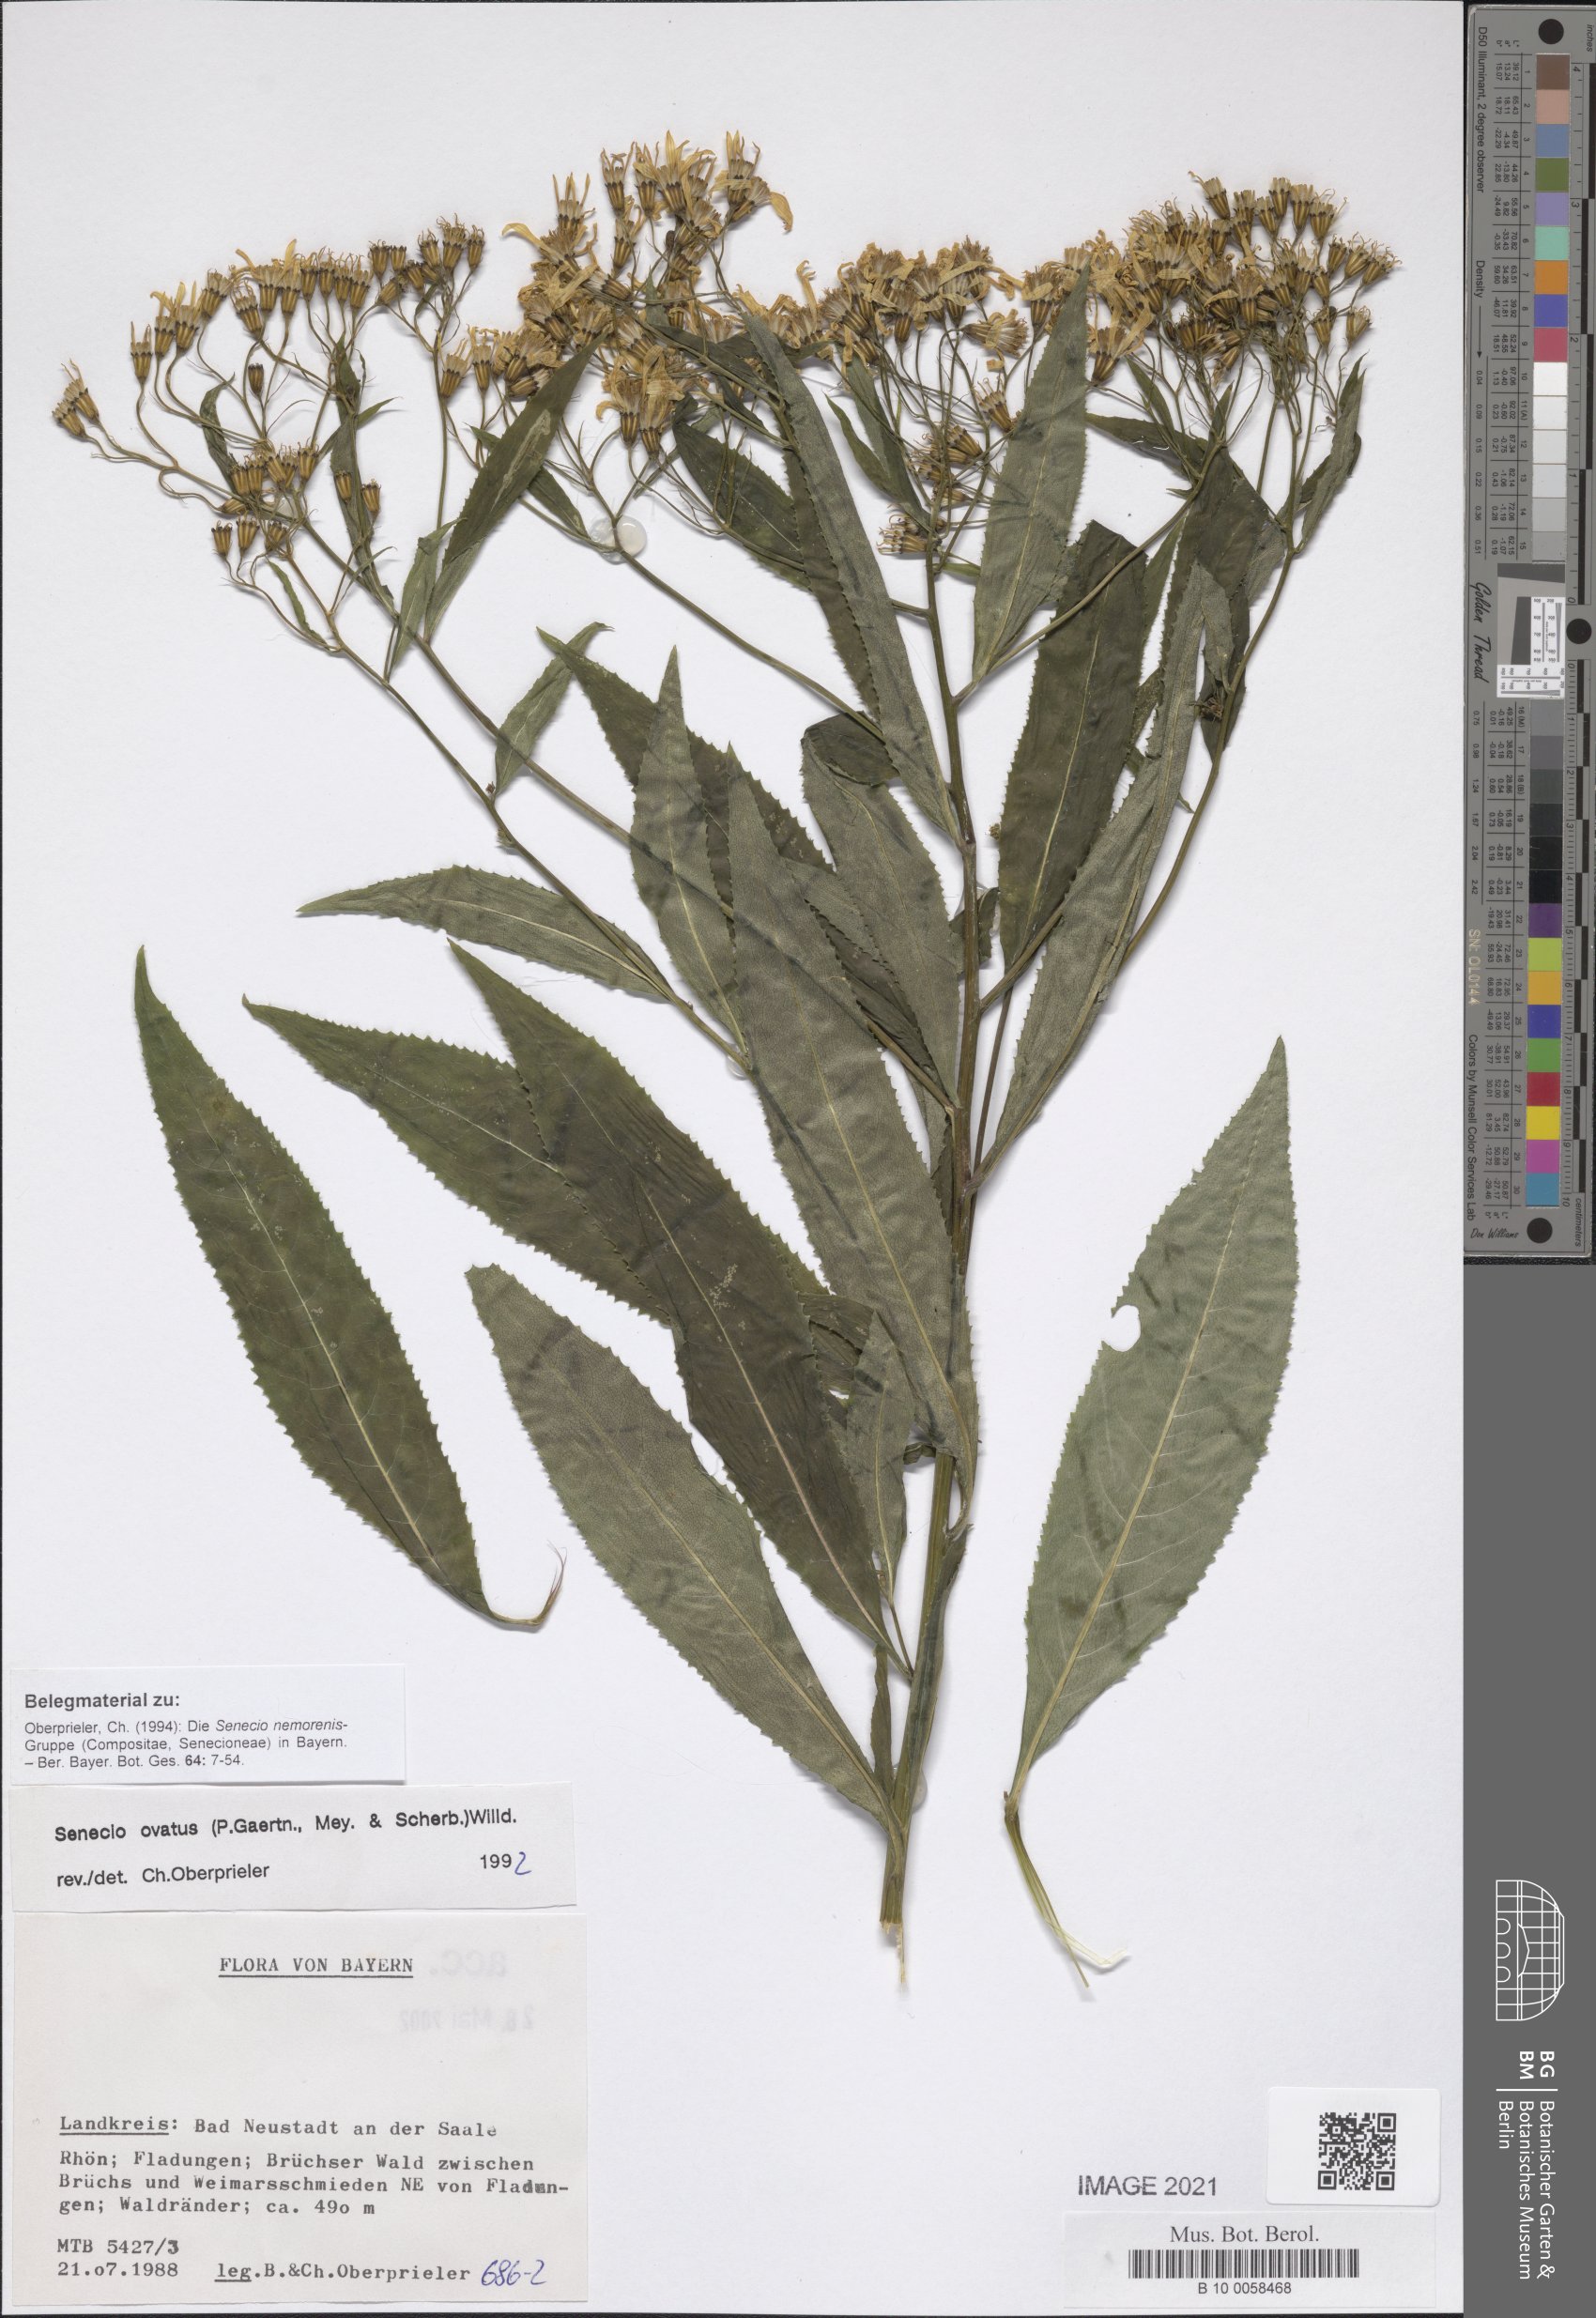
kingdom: Plantae
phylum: Tracheophyta
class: Magnoliopsida
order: Asterales
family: Asteraceae
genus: Senecio
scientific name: Senecio ovatus
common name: Wood ragwort
